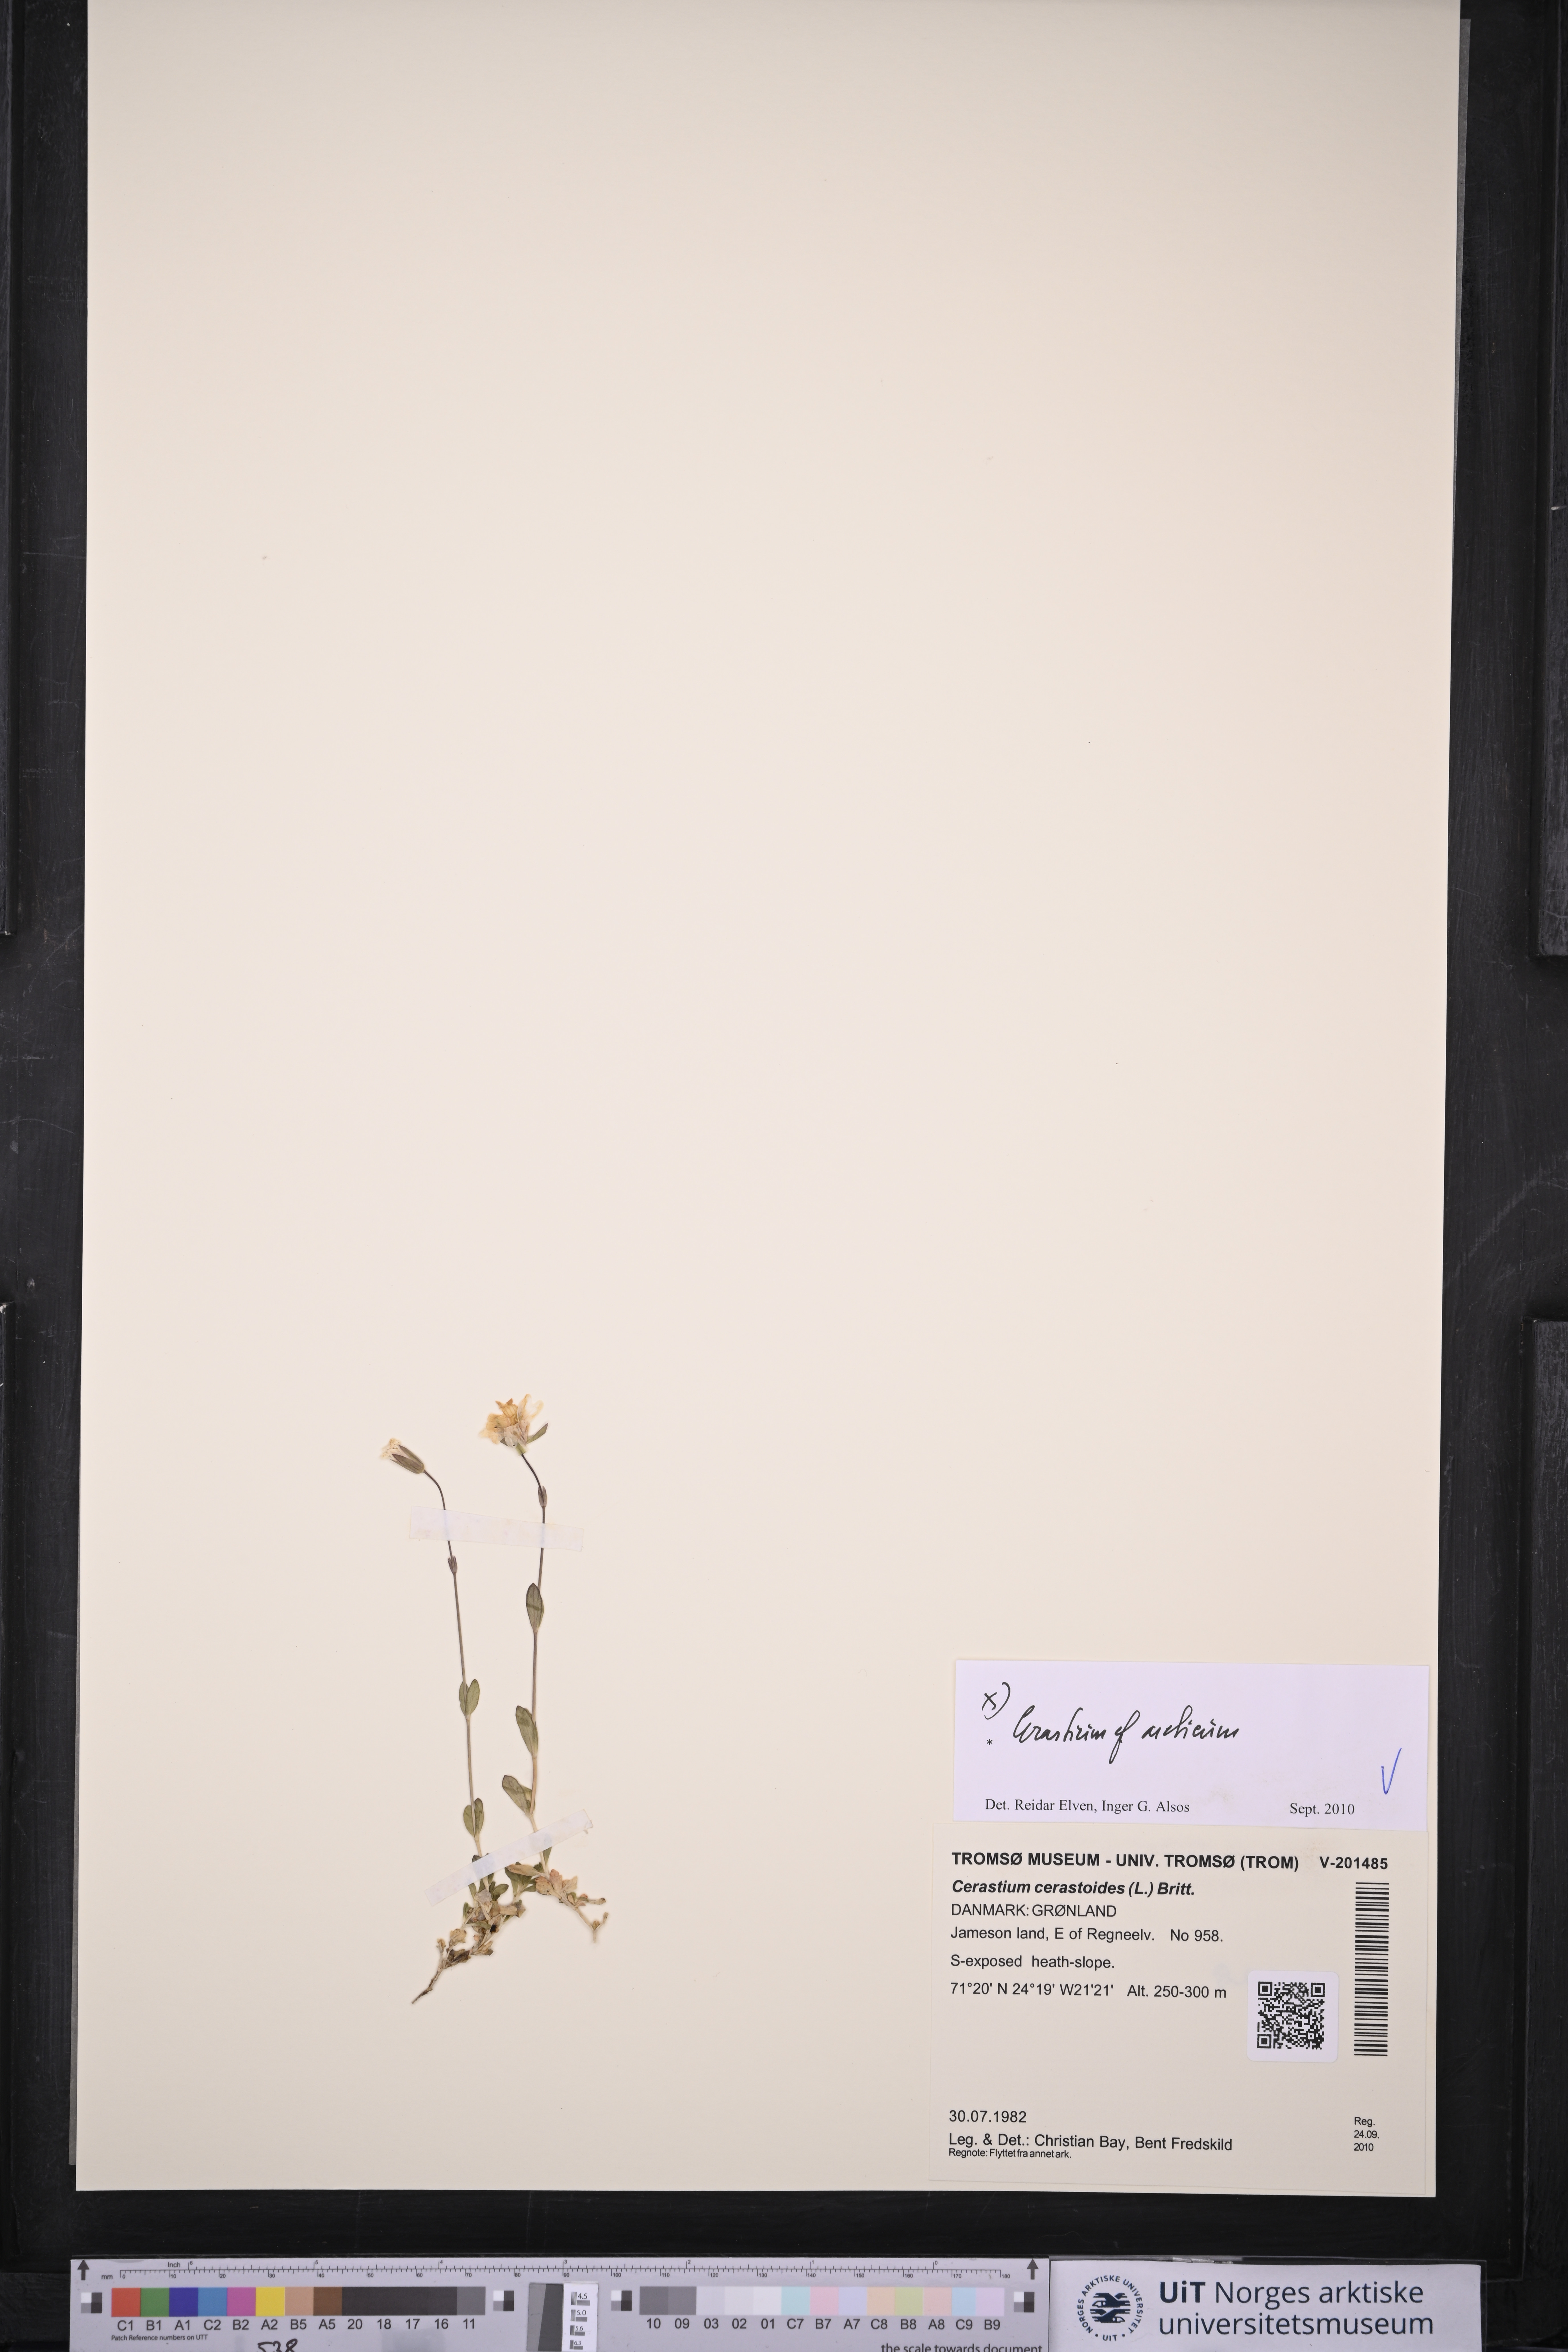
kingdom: Plantae
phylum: Tracheophyta
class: Magnoliopsida
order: Caryophyllales
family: Caryophyllaceae
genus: Cerastium
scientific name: Cerastium arcticum
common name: Arctic mouse-ear
